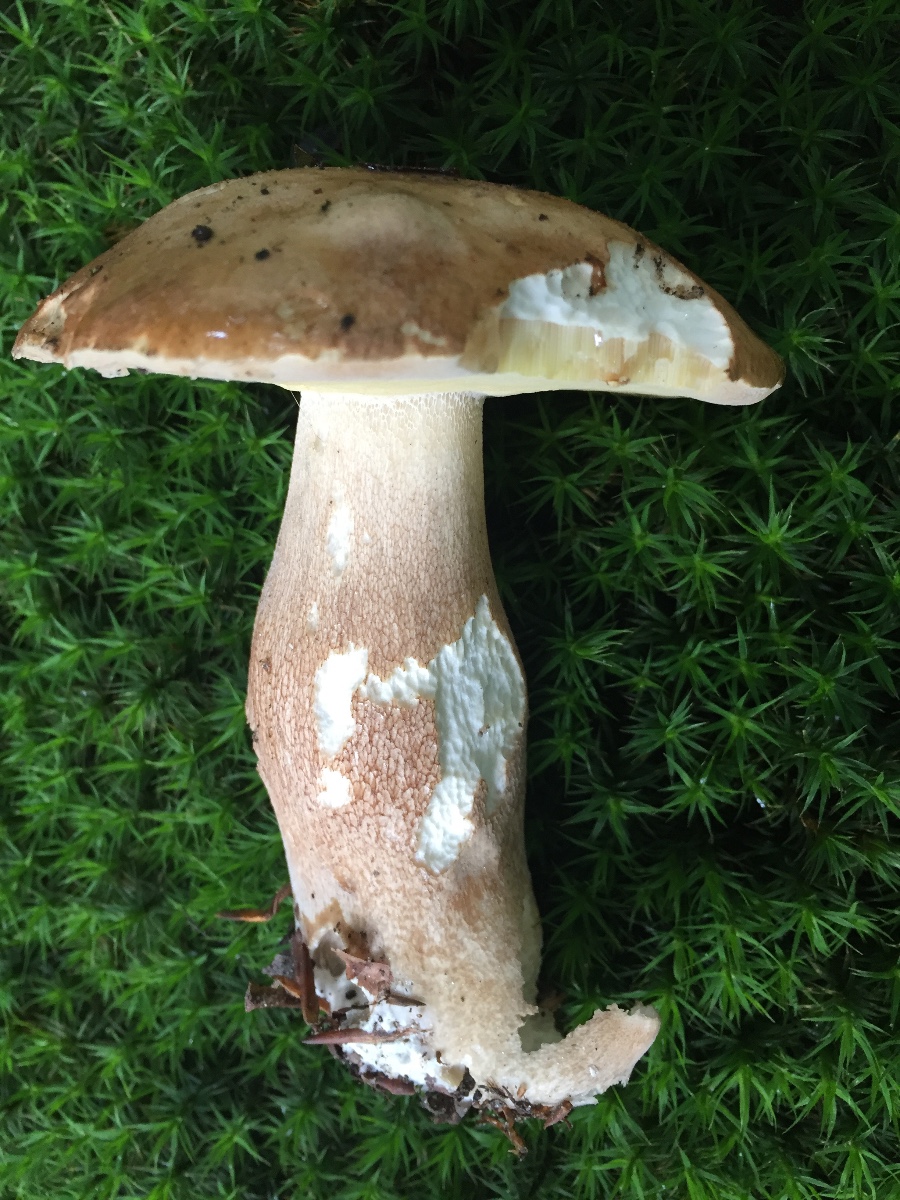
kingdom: Fungi
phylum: Basidiomycota
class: Agaricomycetes
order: Boletales
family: Boletaceae
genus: Boletus
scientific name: Boletus reticulatus
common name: sommer-rørhat
